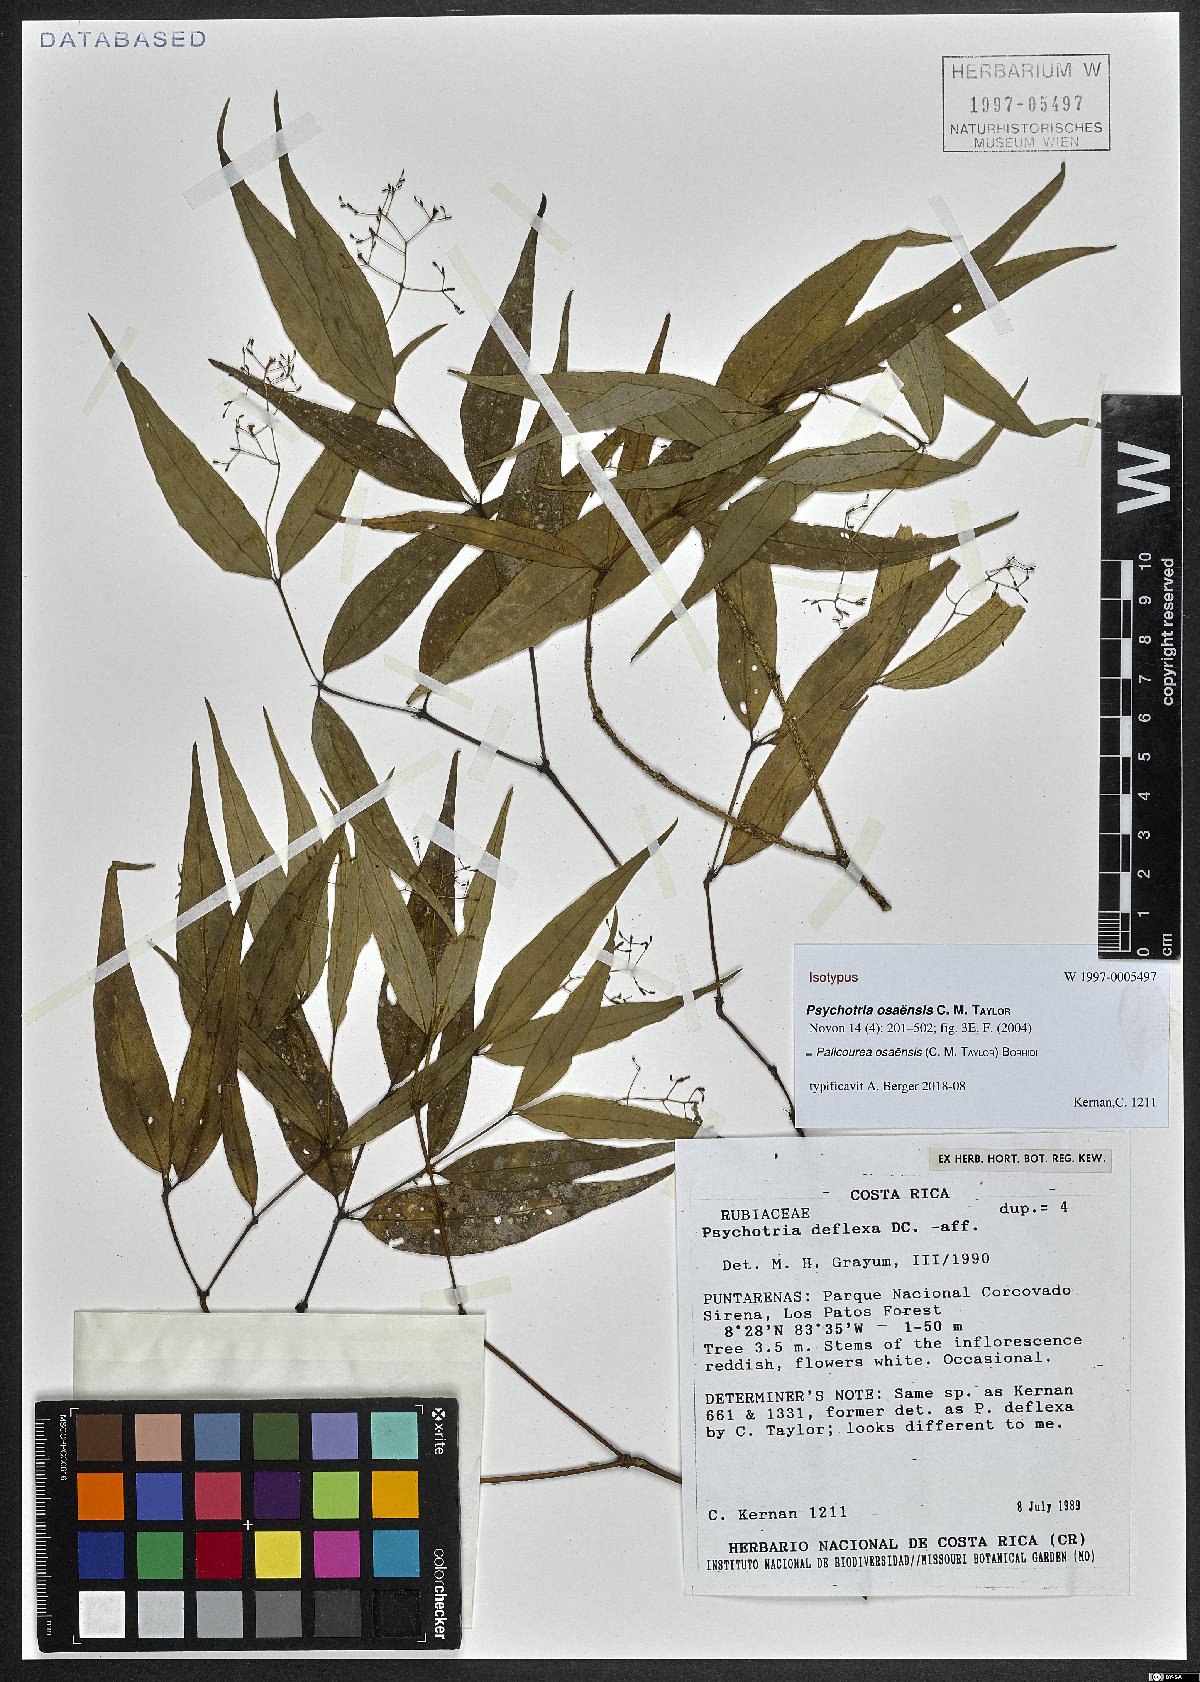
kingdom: Plantae
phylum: Tracheophyta
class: Magnoliopsida
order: Gentianales
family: Rubiaceae
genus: Palicourea
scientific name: Palicourea osaensis
